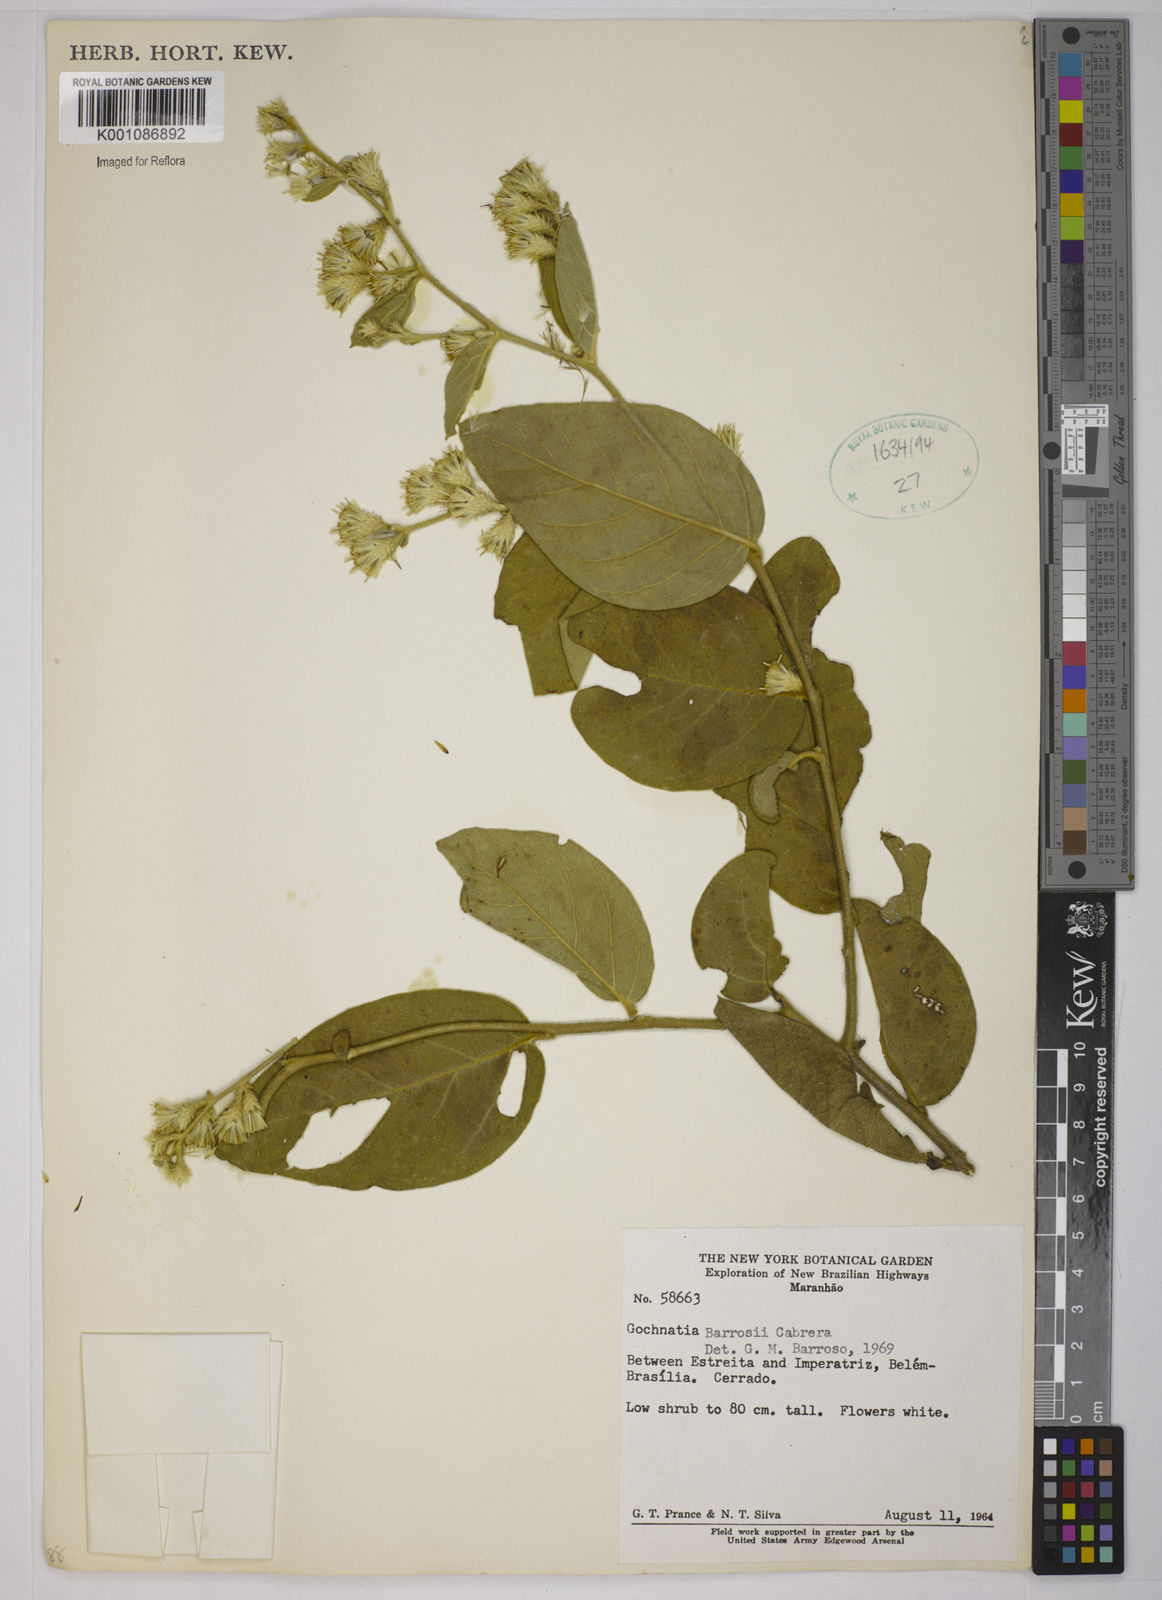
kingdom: Plantae
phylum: Tracheophyta
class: Magnoliopsida
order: Asterales
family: Asteraceae
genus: Moquiniastrum
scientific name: Moquiniastrum barrosoae
